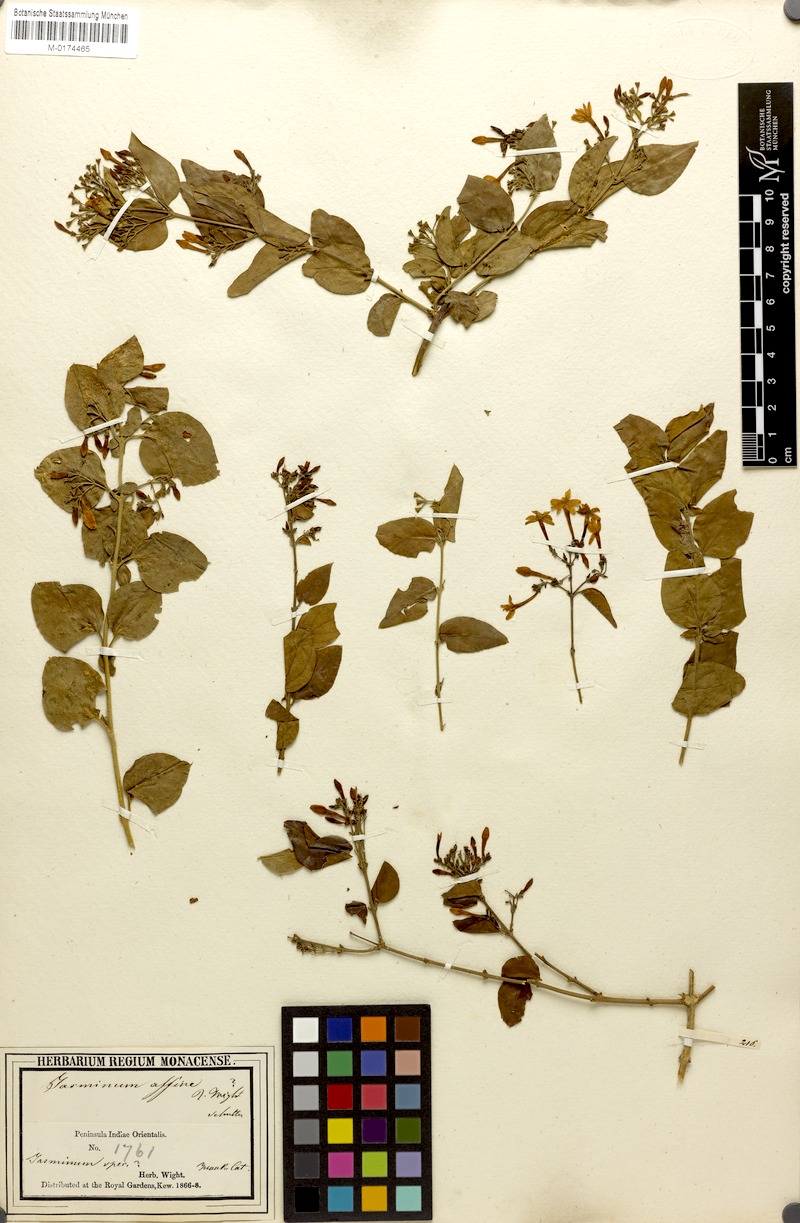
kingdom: Plantae
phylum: Tracheophyta
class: Magnoliopsida
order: Lamiales
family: Oleaceae
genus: Jasminum
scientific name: Jasminum auriculatum
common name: Needle-flower jasmine
